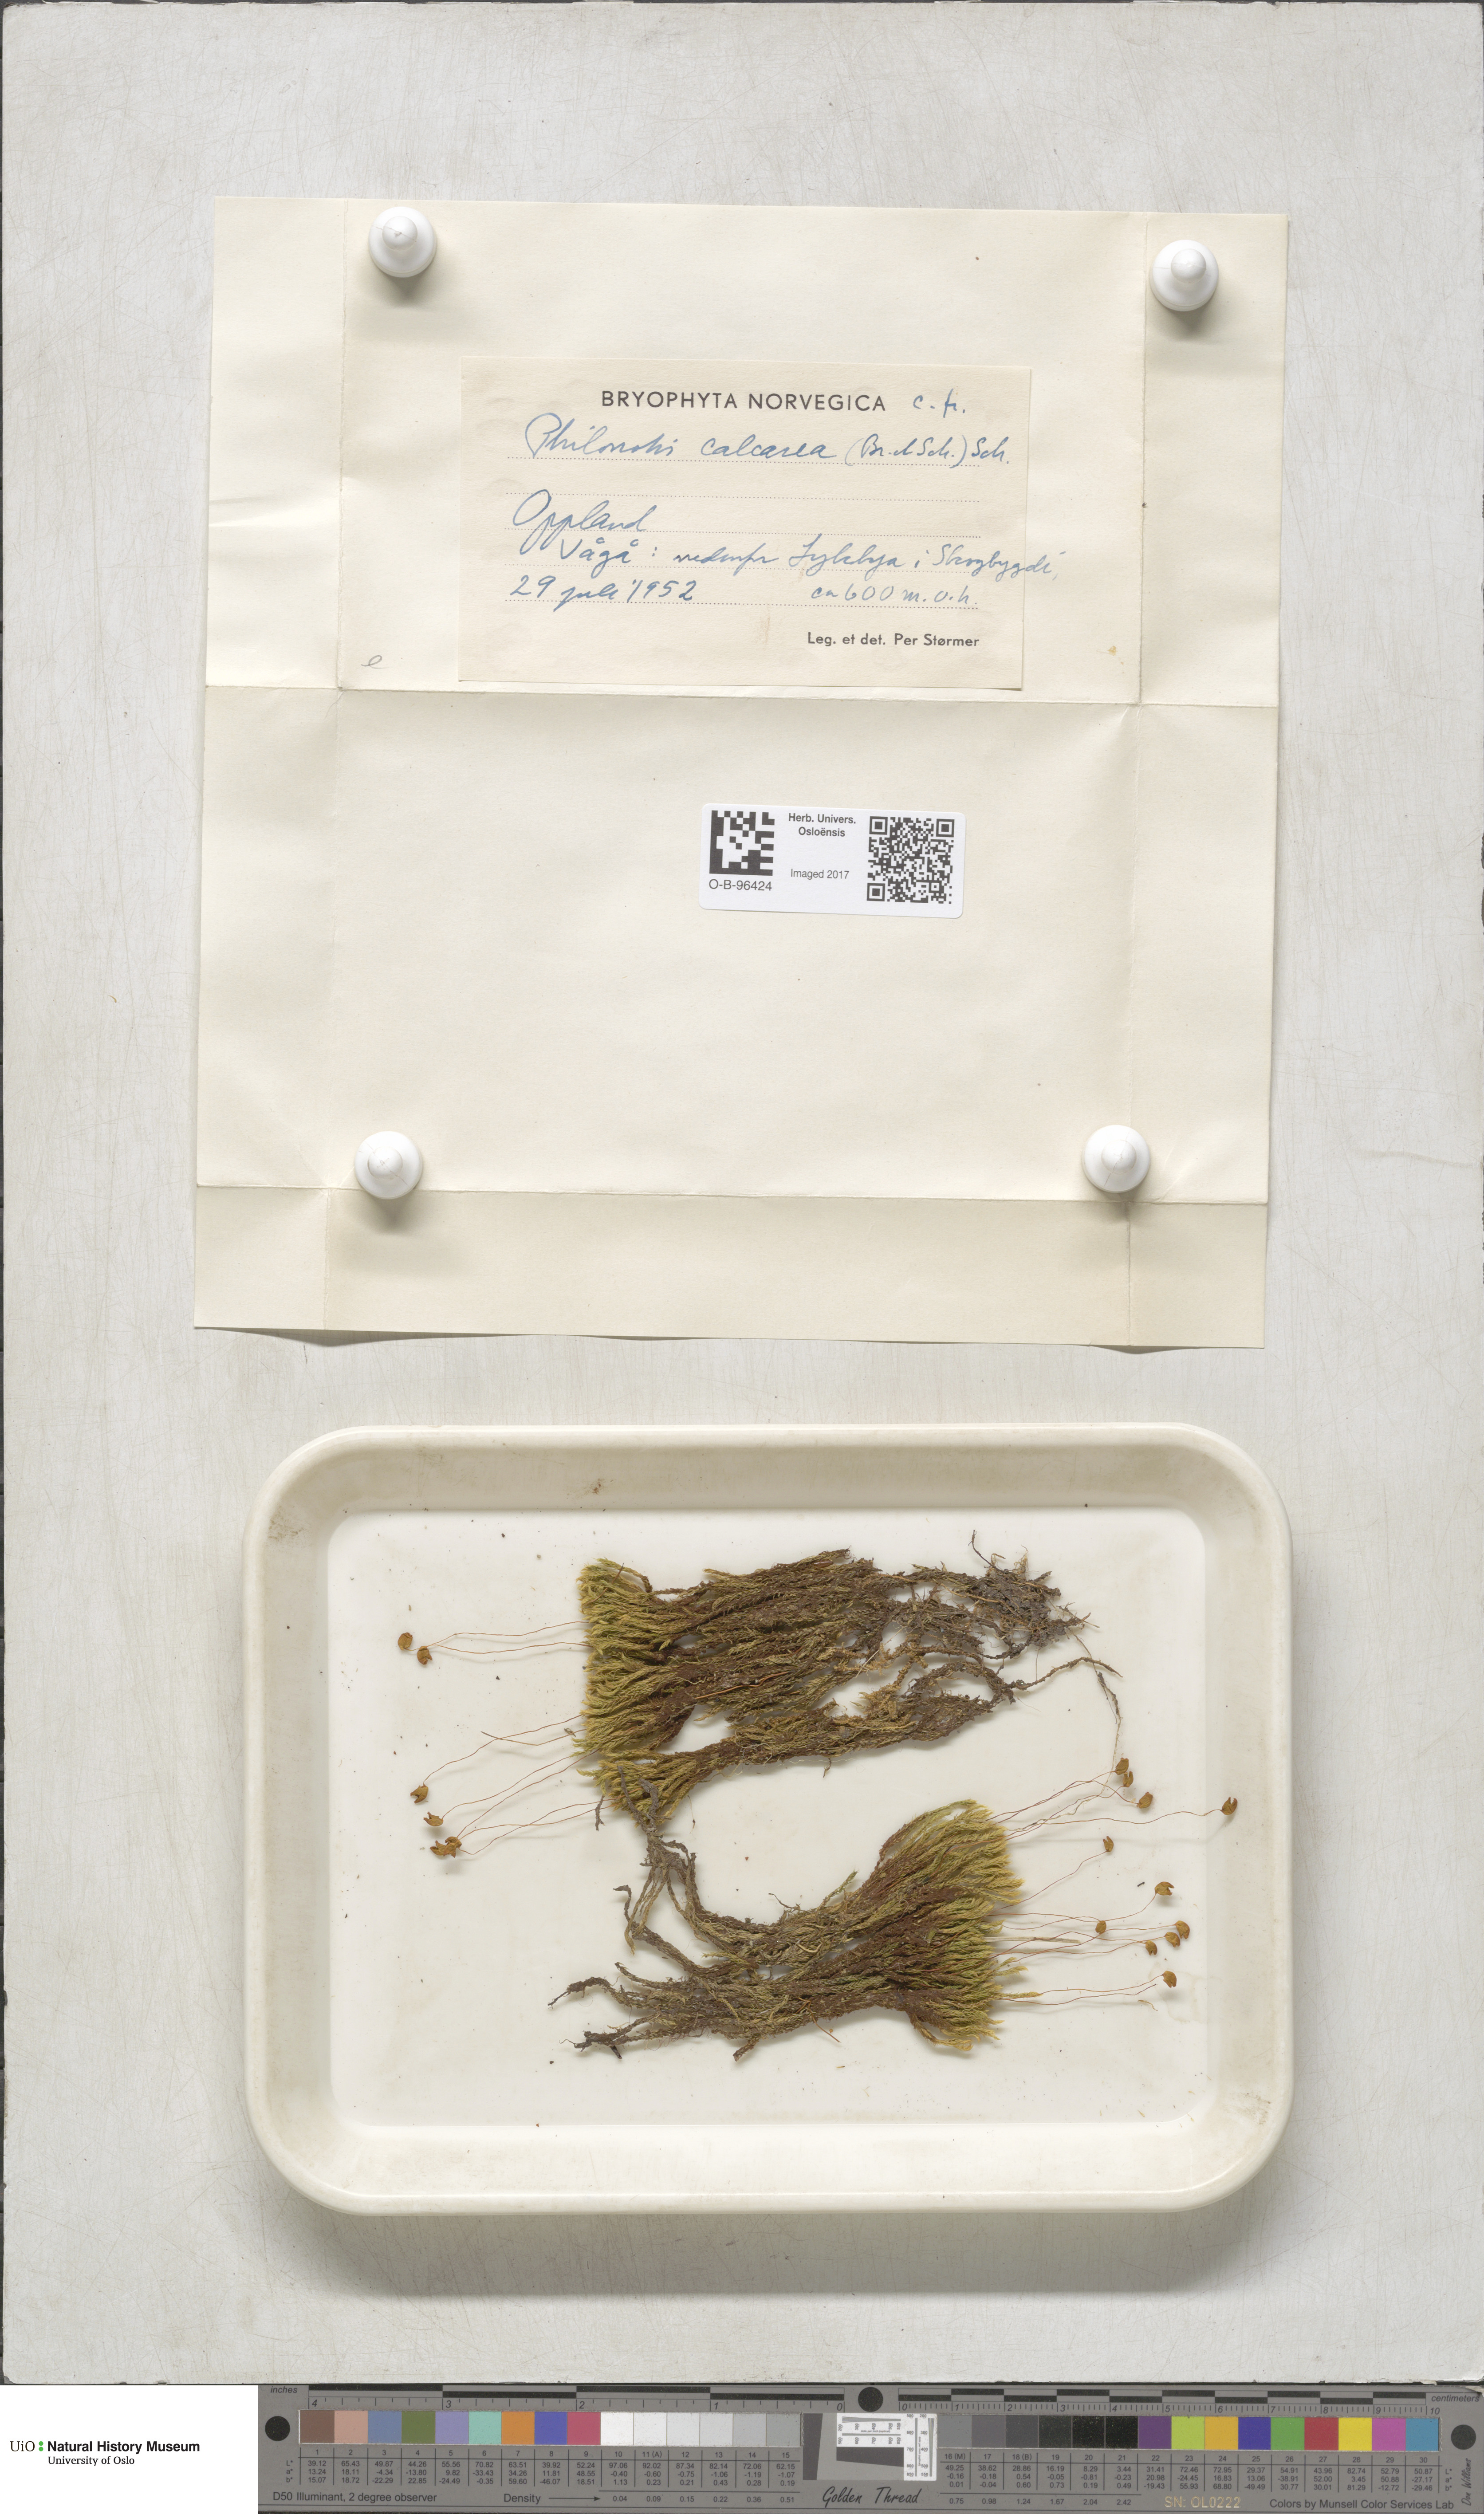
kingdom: Plantae
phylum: Bryophyta
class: Bryopsida
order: Bartramiales
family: Bartramiaceae
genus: Philonotis
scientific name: Philonotis calcarea
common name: Thick-nerved apple-moss
